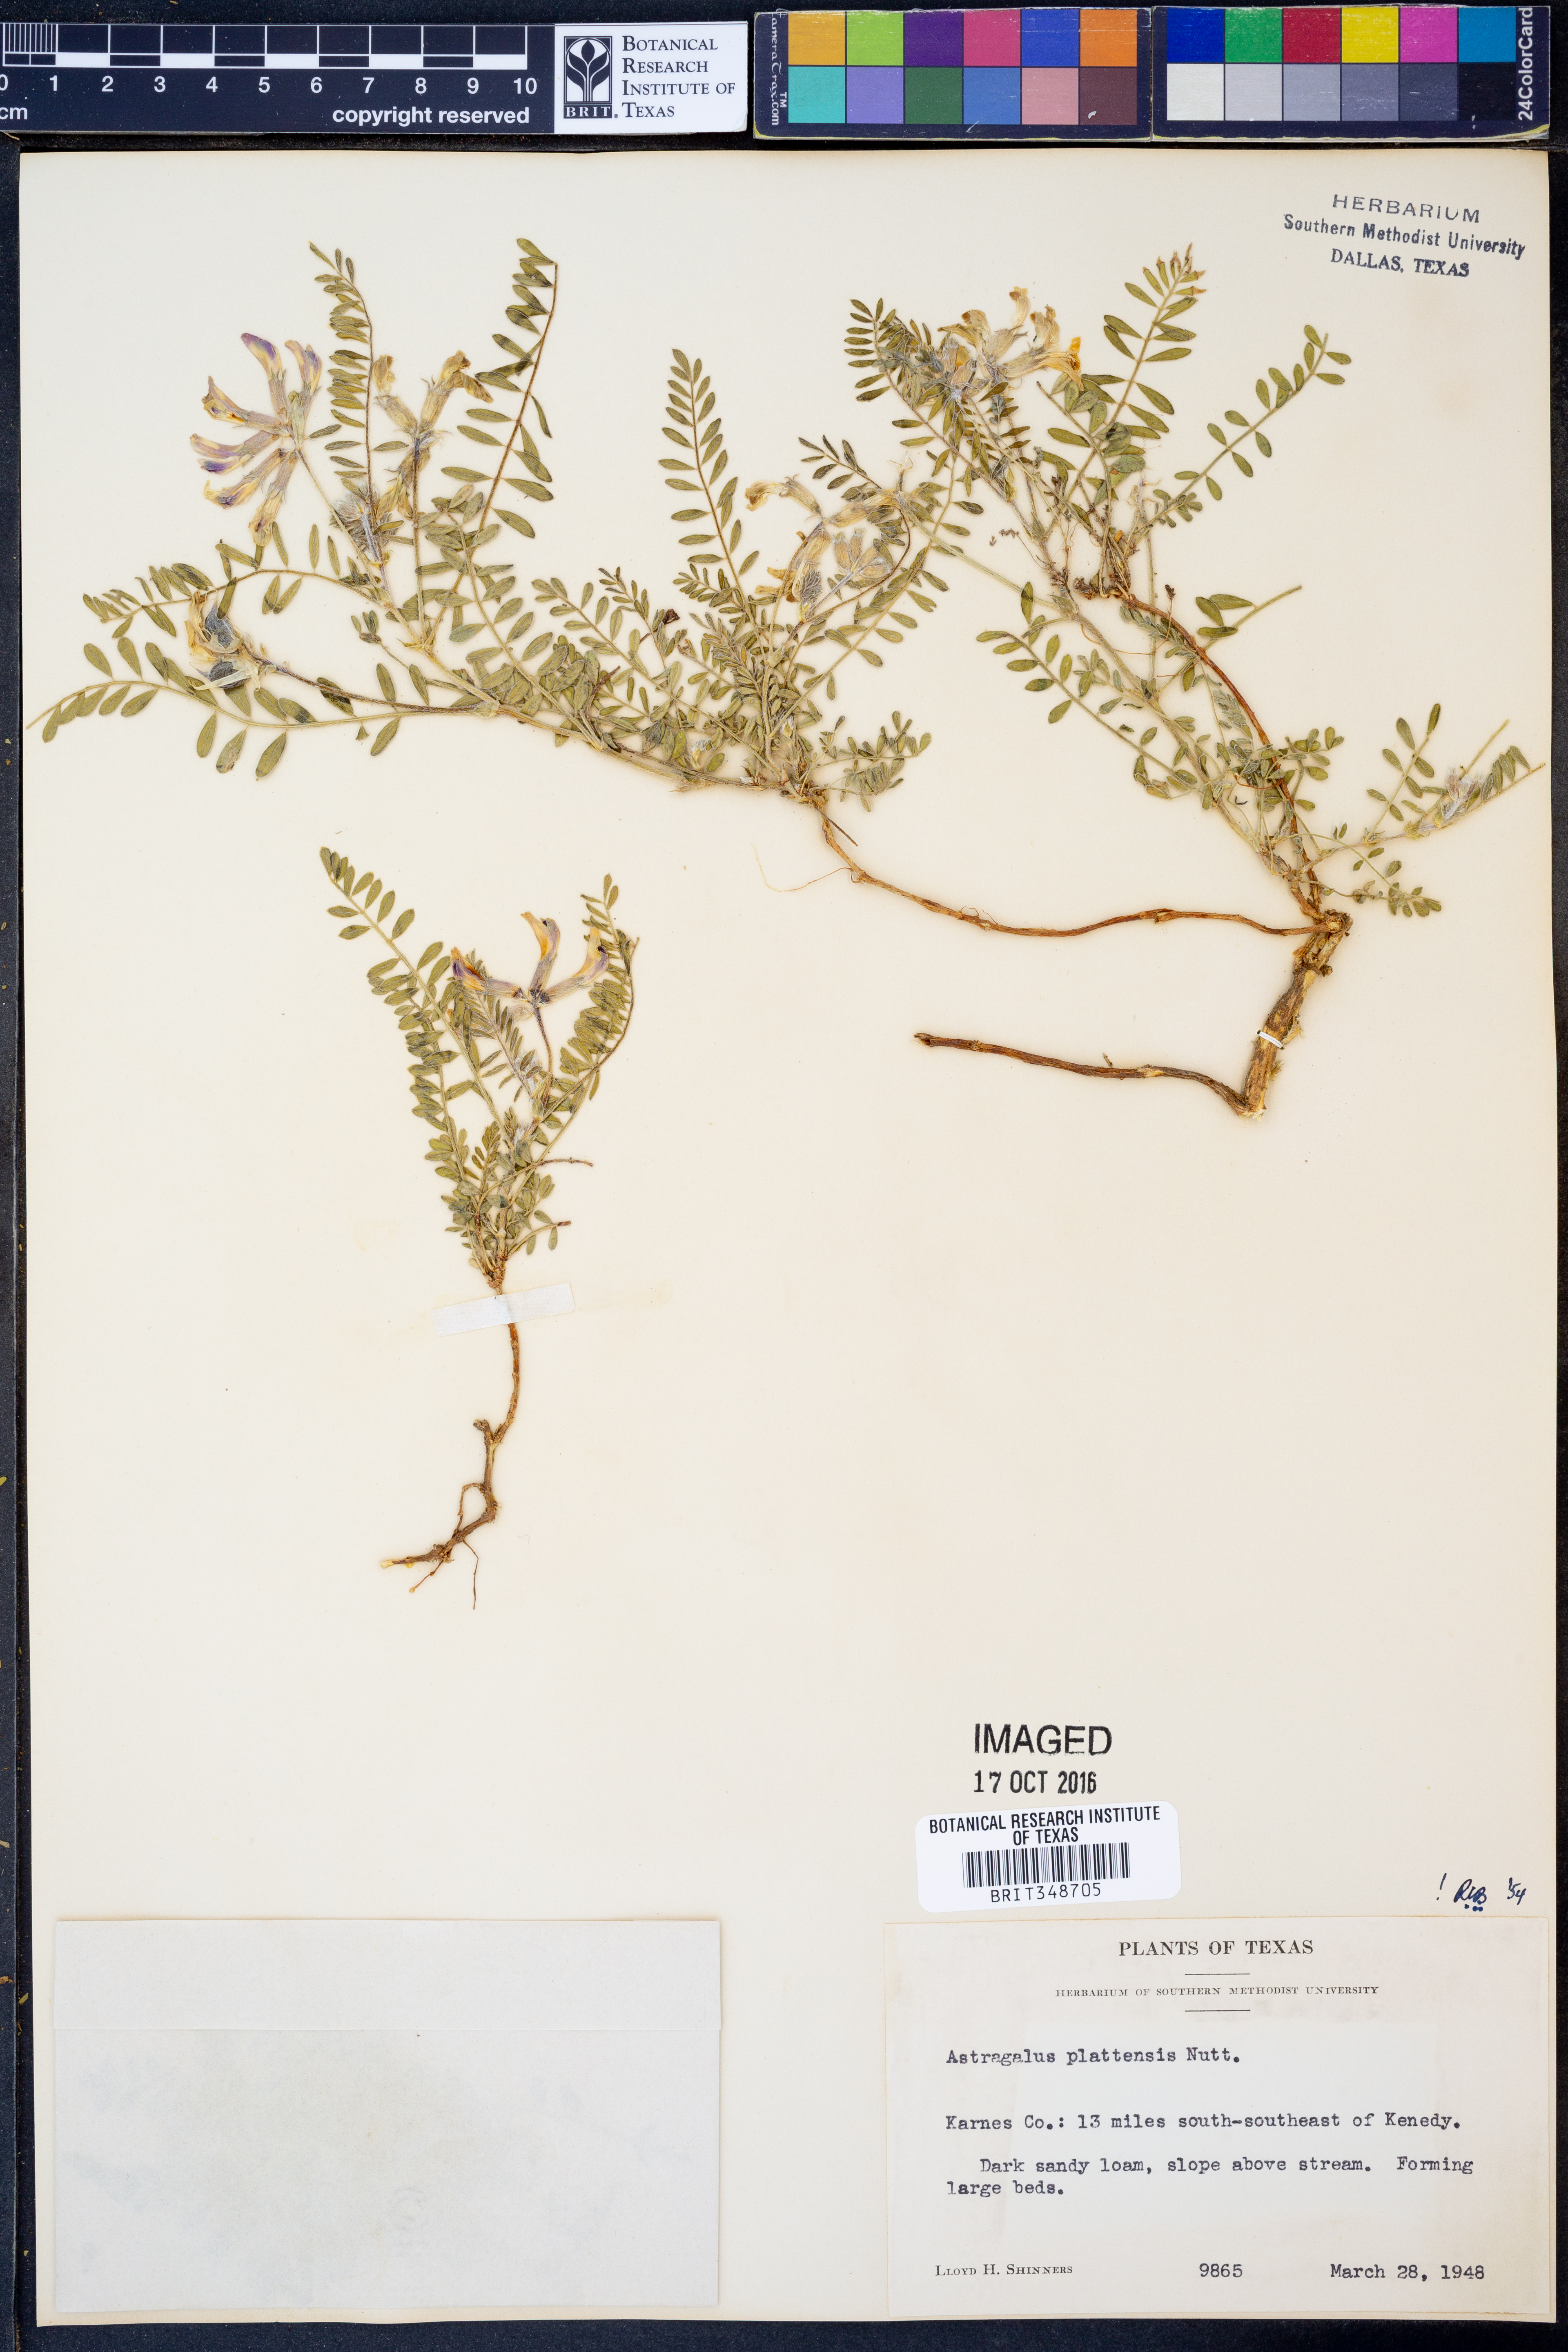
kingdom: Plantae
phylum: Tracheophyta
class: Magnoliopsida
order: Fabales
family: Fabaceae
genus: Astragalus
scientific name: Astragalus plattensis
